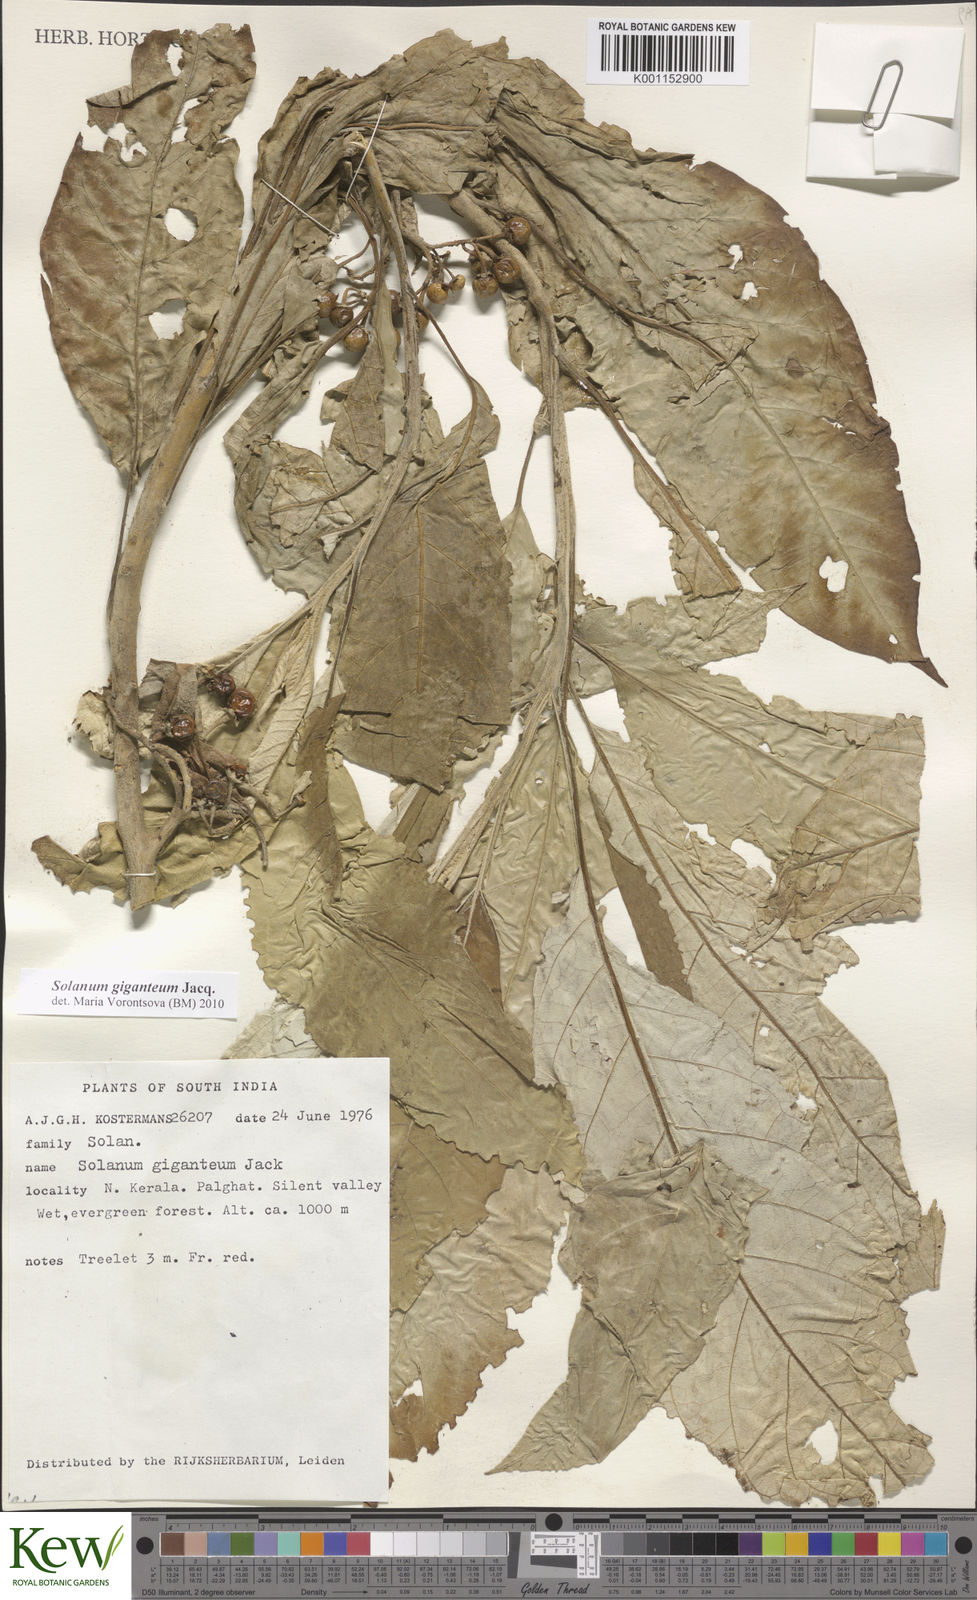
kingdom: Plantae
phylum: Tracheophyta
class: Magnoliopsida
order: Solanales
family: Solanaceae
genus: Solanum
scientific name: Solanum giganteum
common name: Healing-leaf-tree
